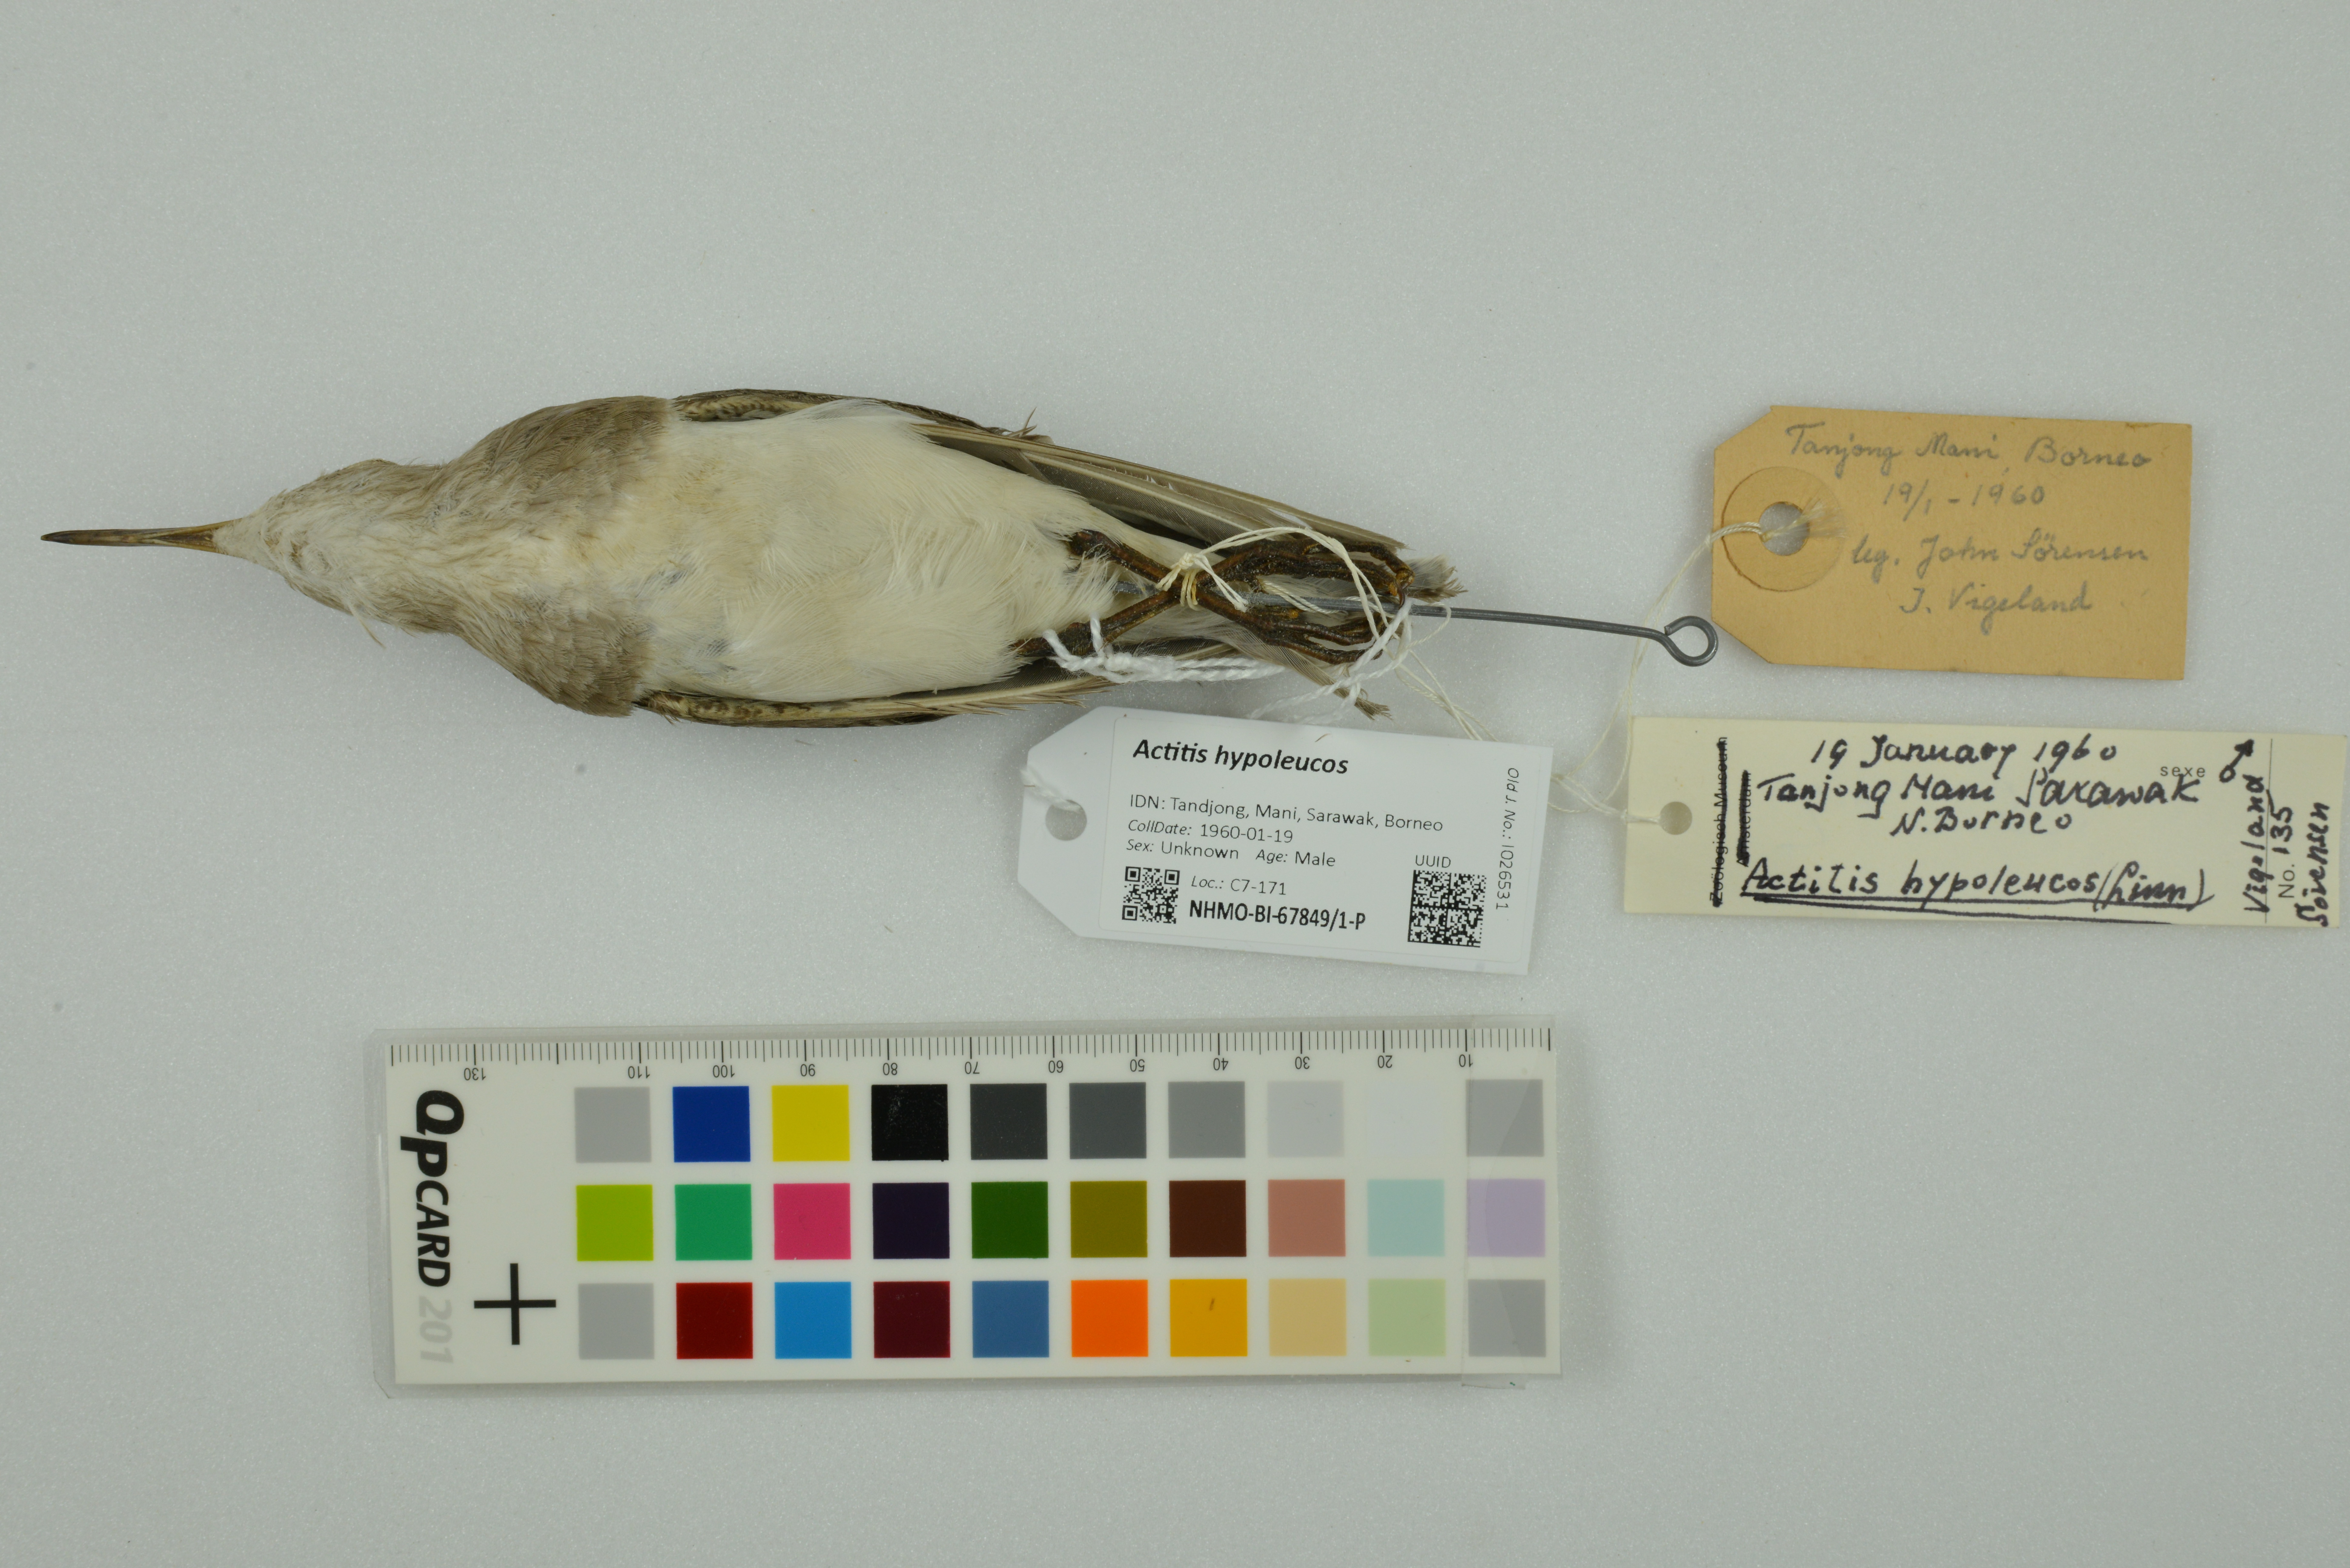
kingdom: Animalia
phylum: Chordata
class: Aves
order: Charadriiformes
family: Scolopacidae
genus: Actitis
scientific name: Actitis hypoleucos
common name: Common sandpiper
